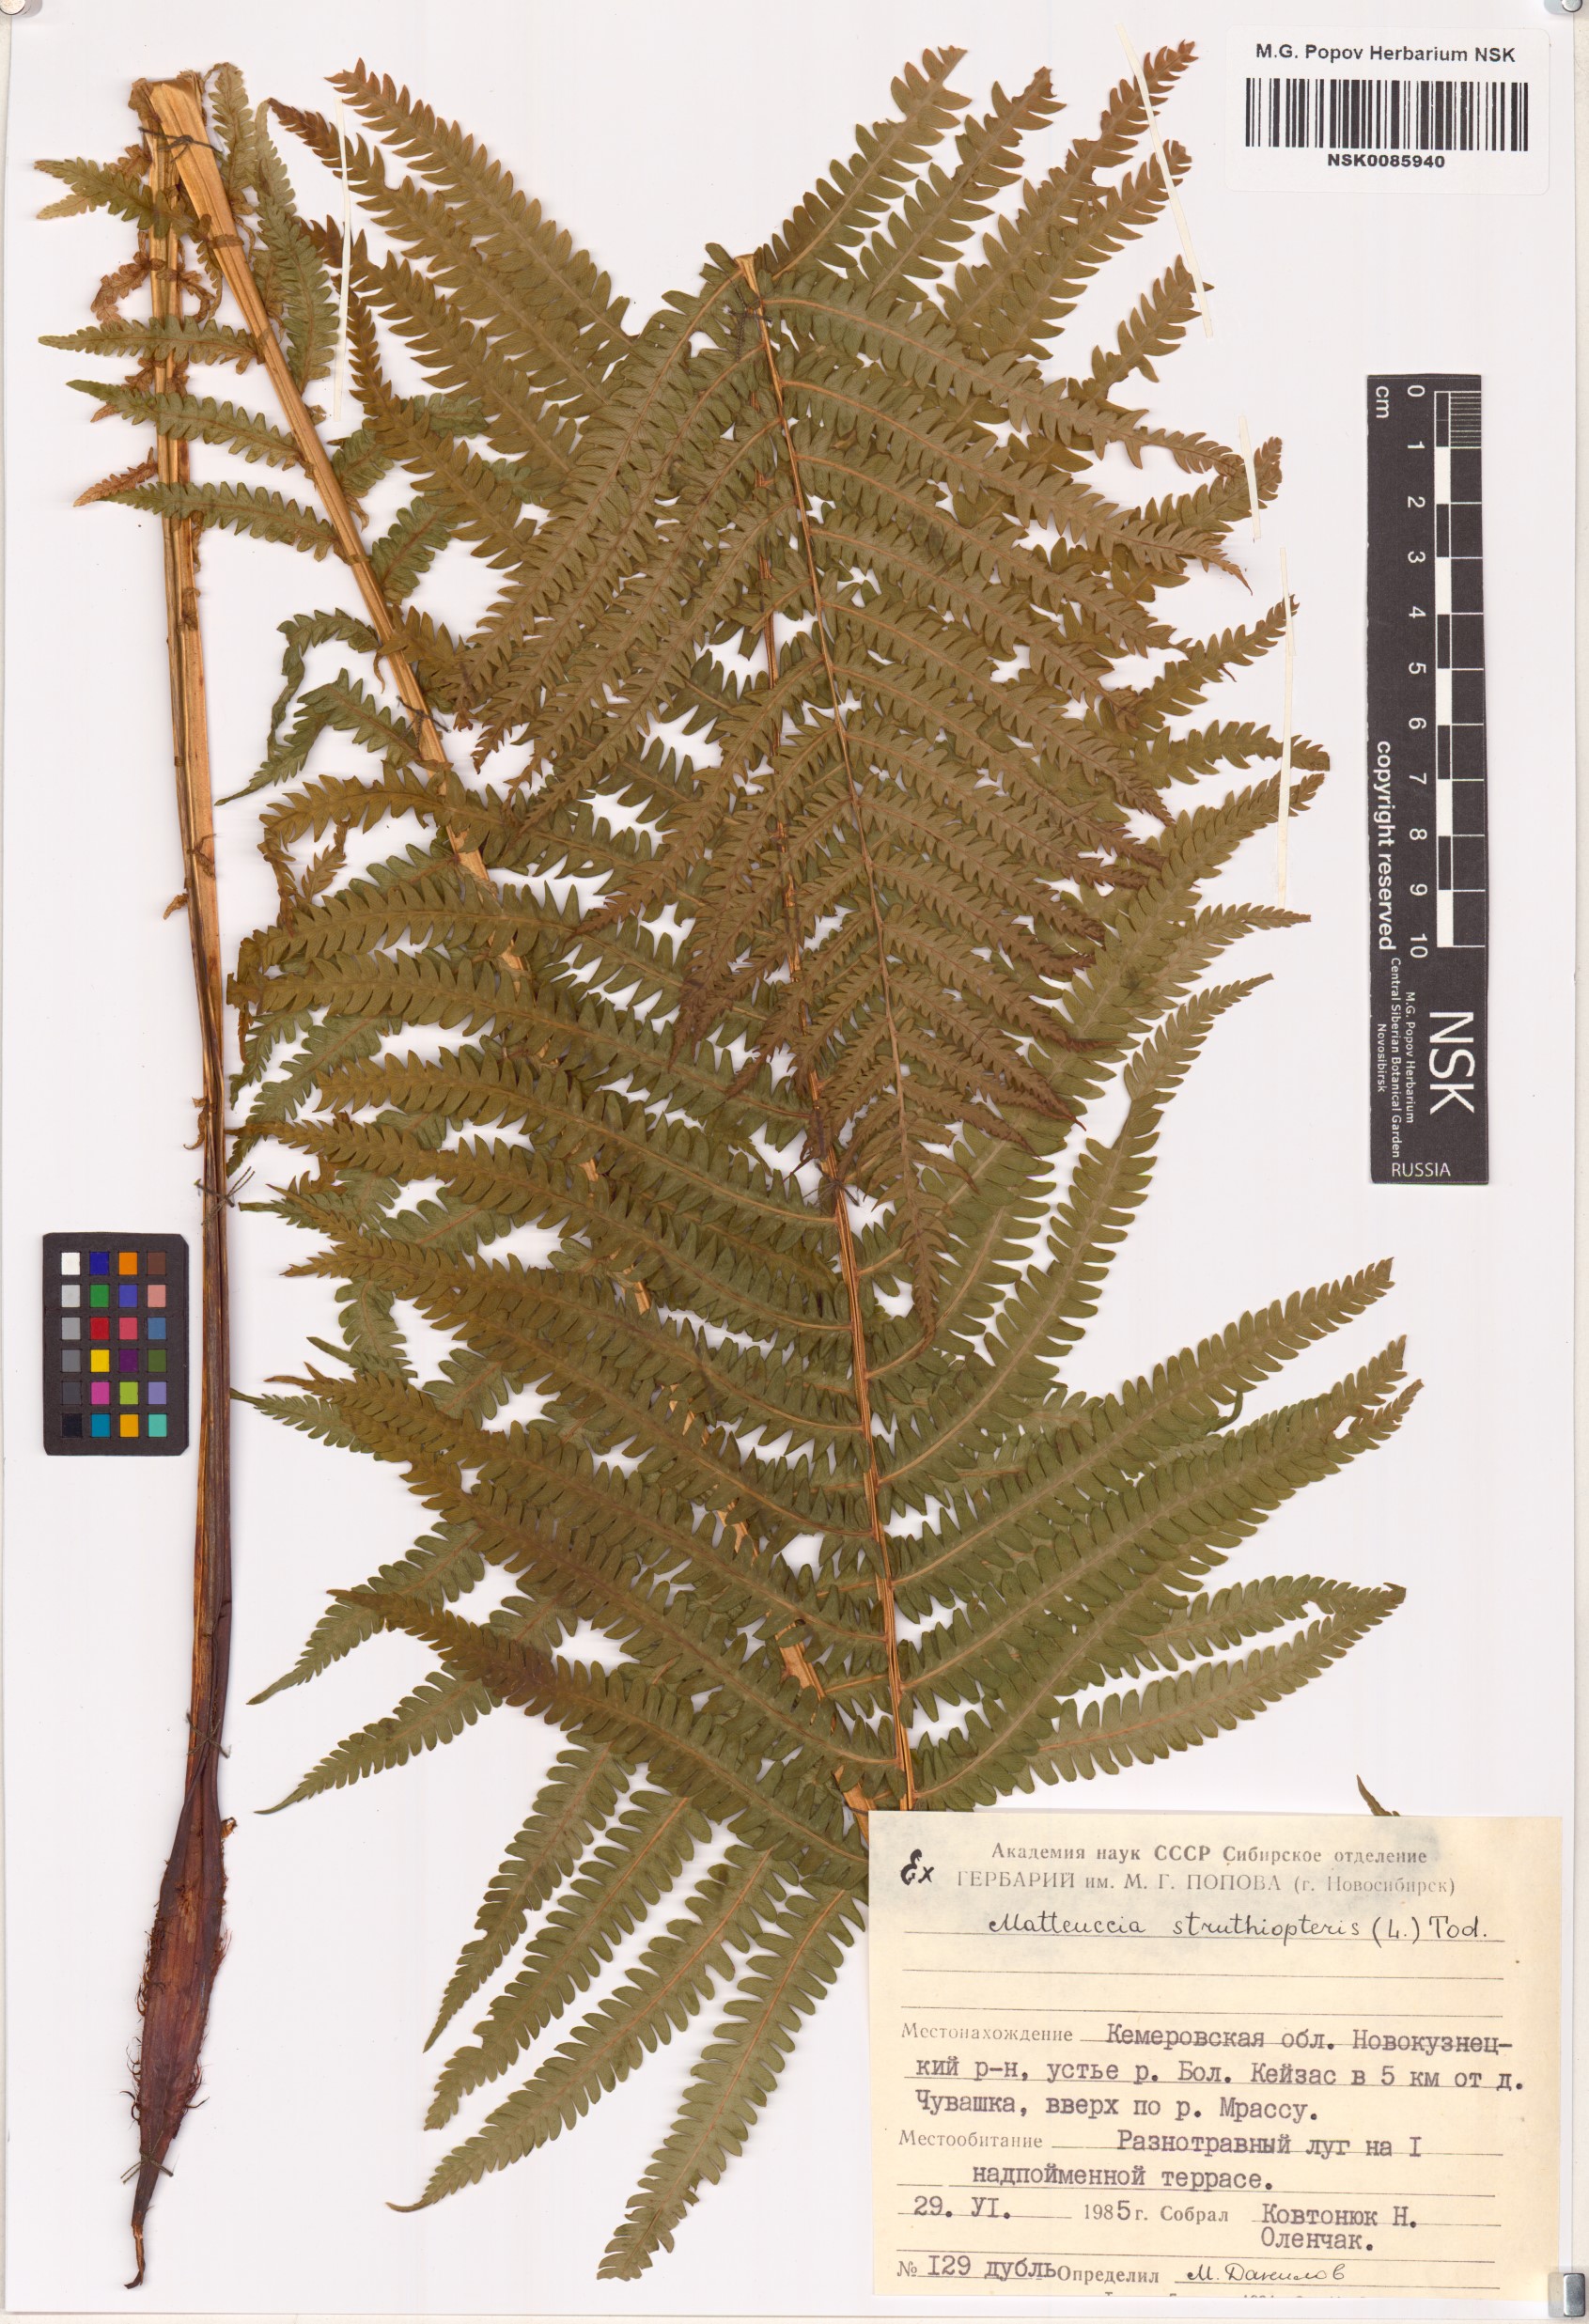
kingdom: Plantae
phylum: Tracheophyta
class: Polypodiopsida
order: Polypodiales
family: Onocleaceae
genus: Matteuccia
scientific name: Matteuccia struthiopteris
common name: Ostrich fern
